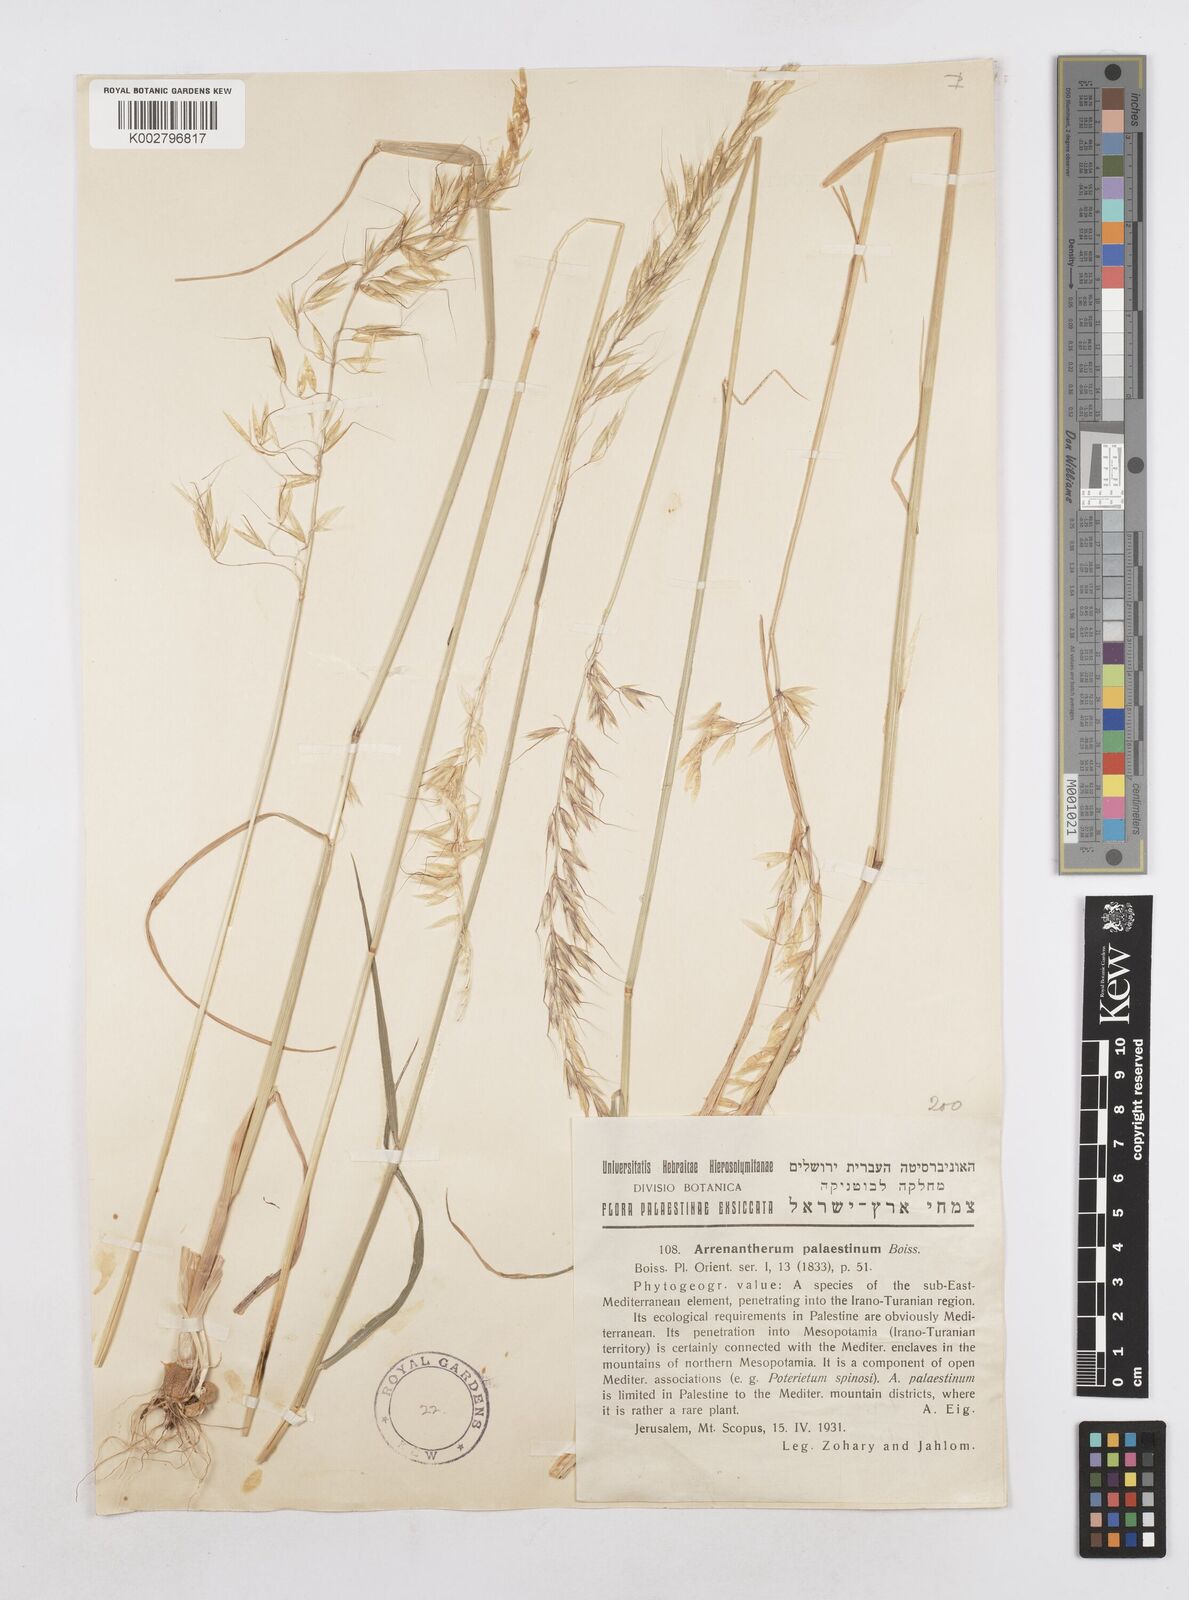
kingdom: Plantae
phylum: Tracheophyta
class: Liliopsida
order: Poales
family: Poaceae
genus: Arrhenatherum
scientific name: Arrhenatherum palaestinum
